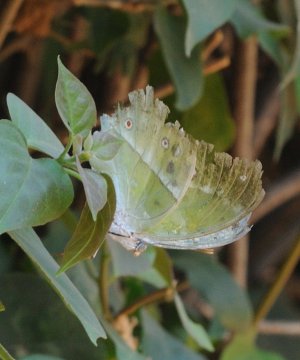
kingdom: Animalia
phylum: Arthropoda
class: Insecta
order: Lepidoptera
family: Nymphalidae
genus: Salamis
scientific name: Salamis Protogoniomorpha parhassus
